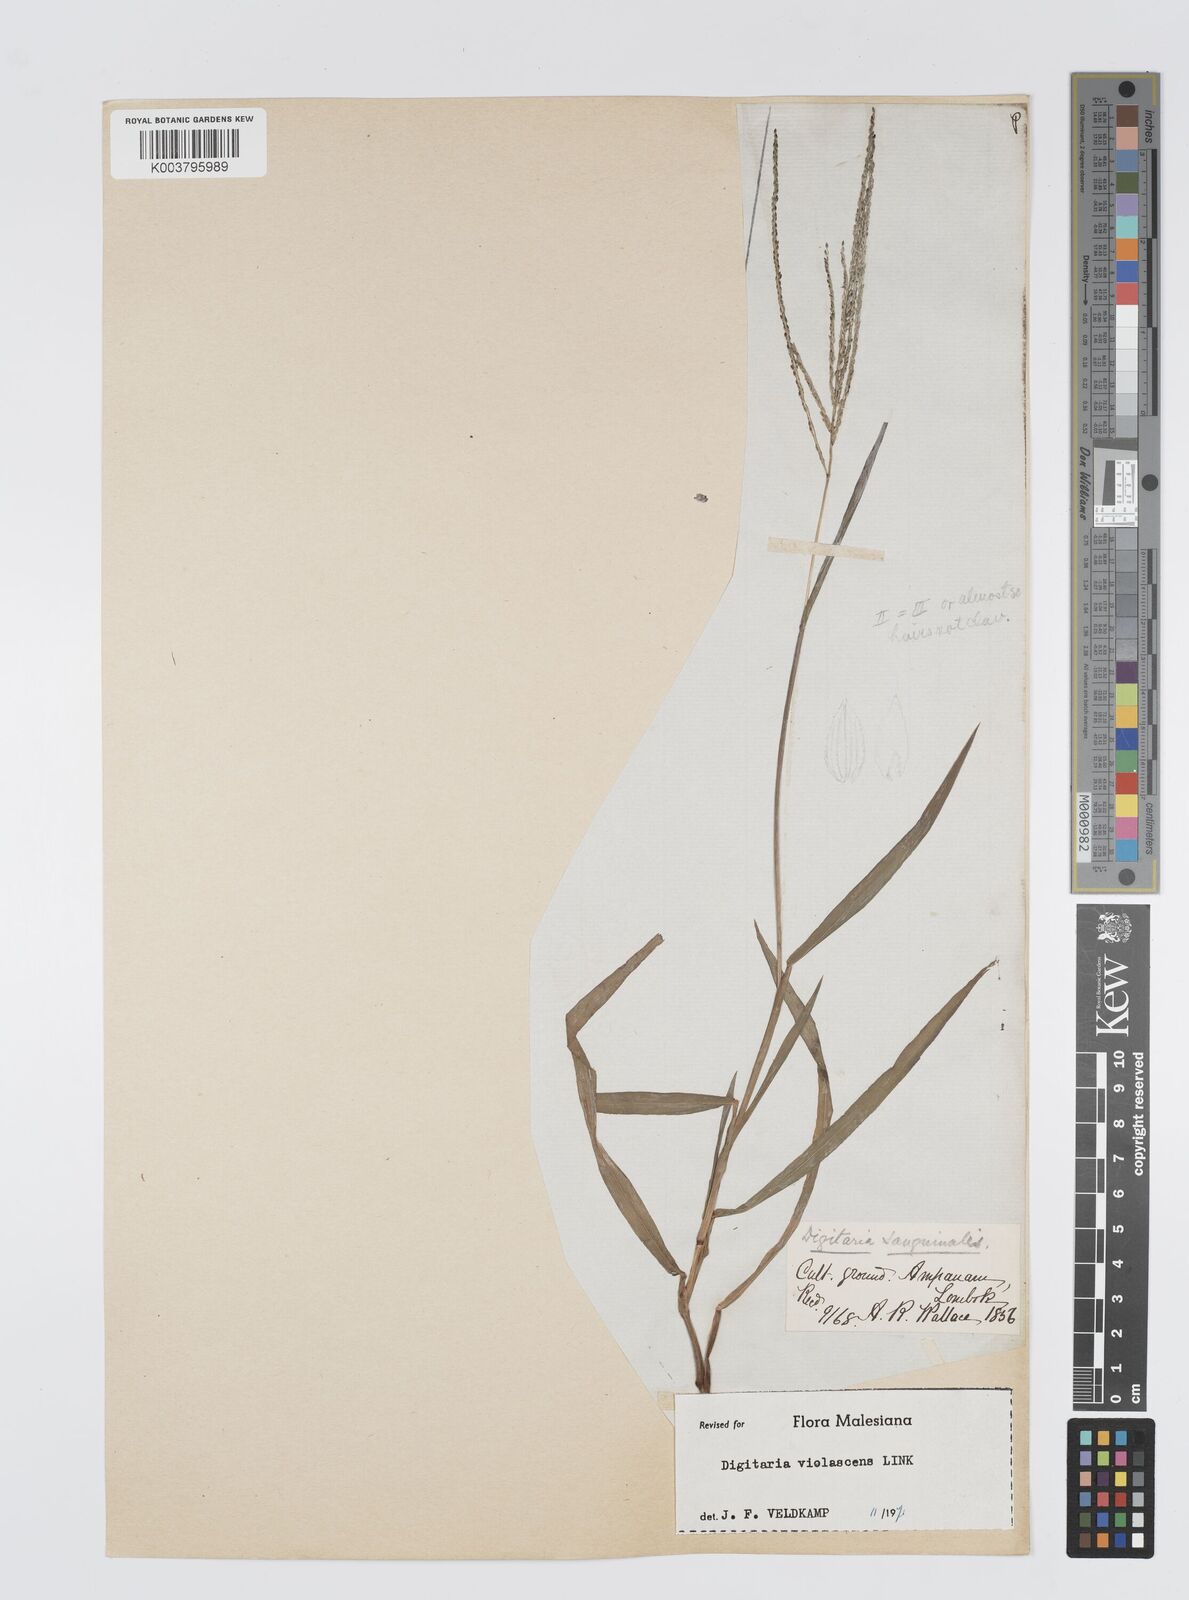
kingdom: Plantae
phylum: Tracheophyta
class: Liliopsida
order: Poales
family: Poaceae
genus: Digitaria
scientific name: Digitaria violascens
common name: Violet crabgrass
